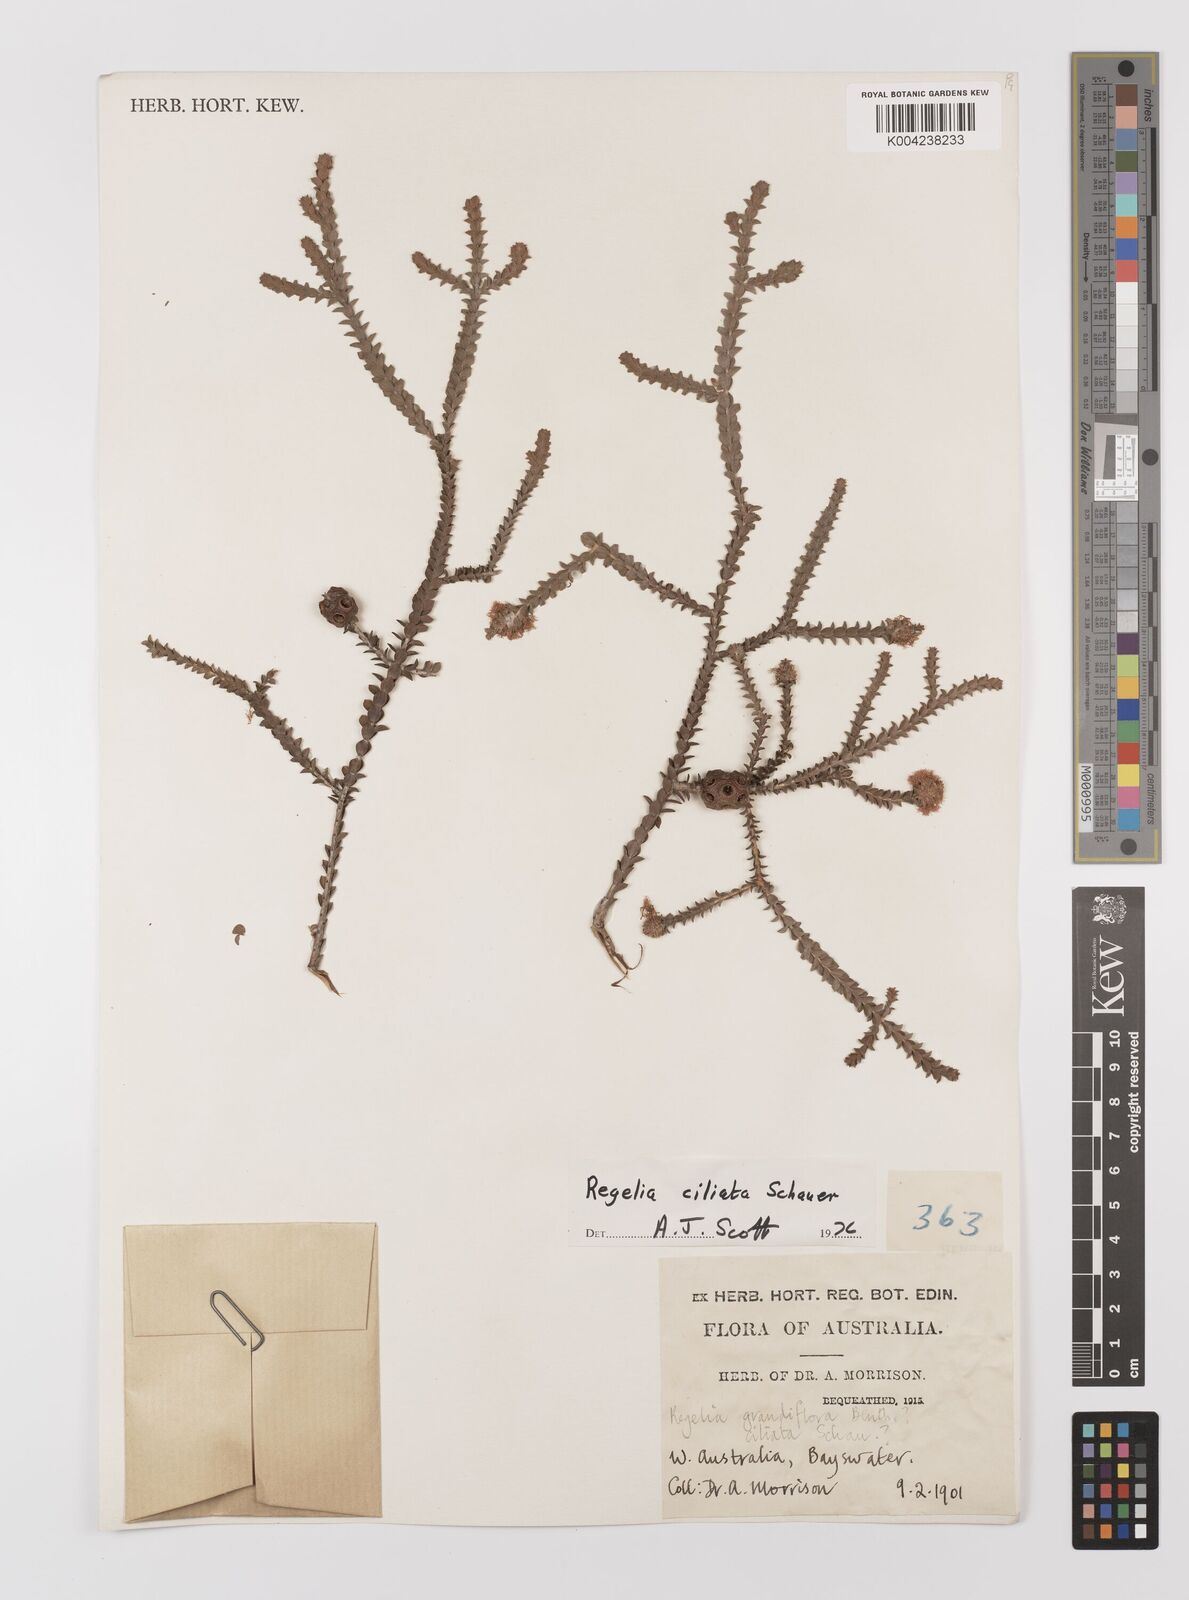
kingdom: Plantae
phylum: Tracheophyta
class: Magnoliopsida
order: Myrtales
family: Myrtaceae
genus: Melaleuca
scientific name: Melaleuca crossota
